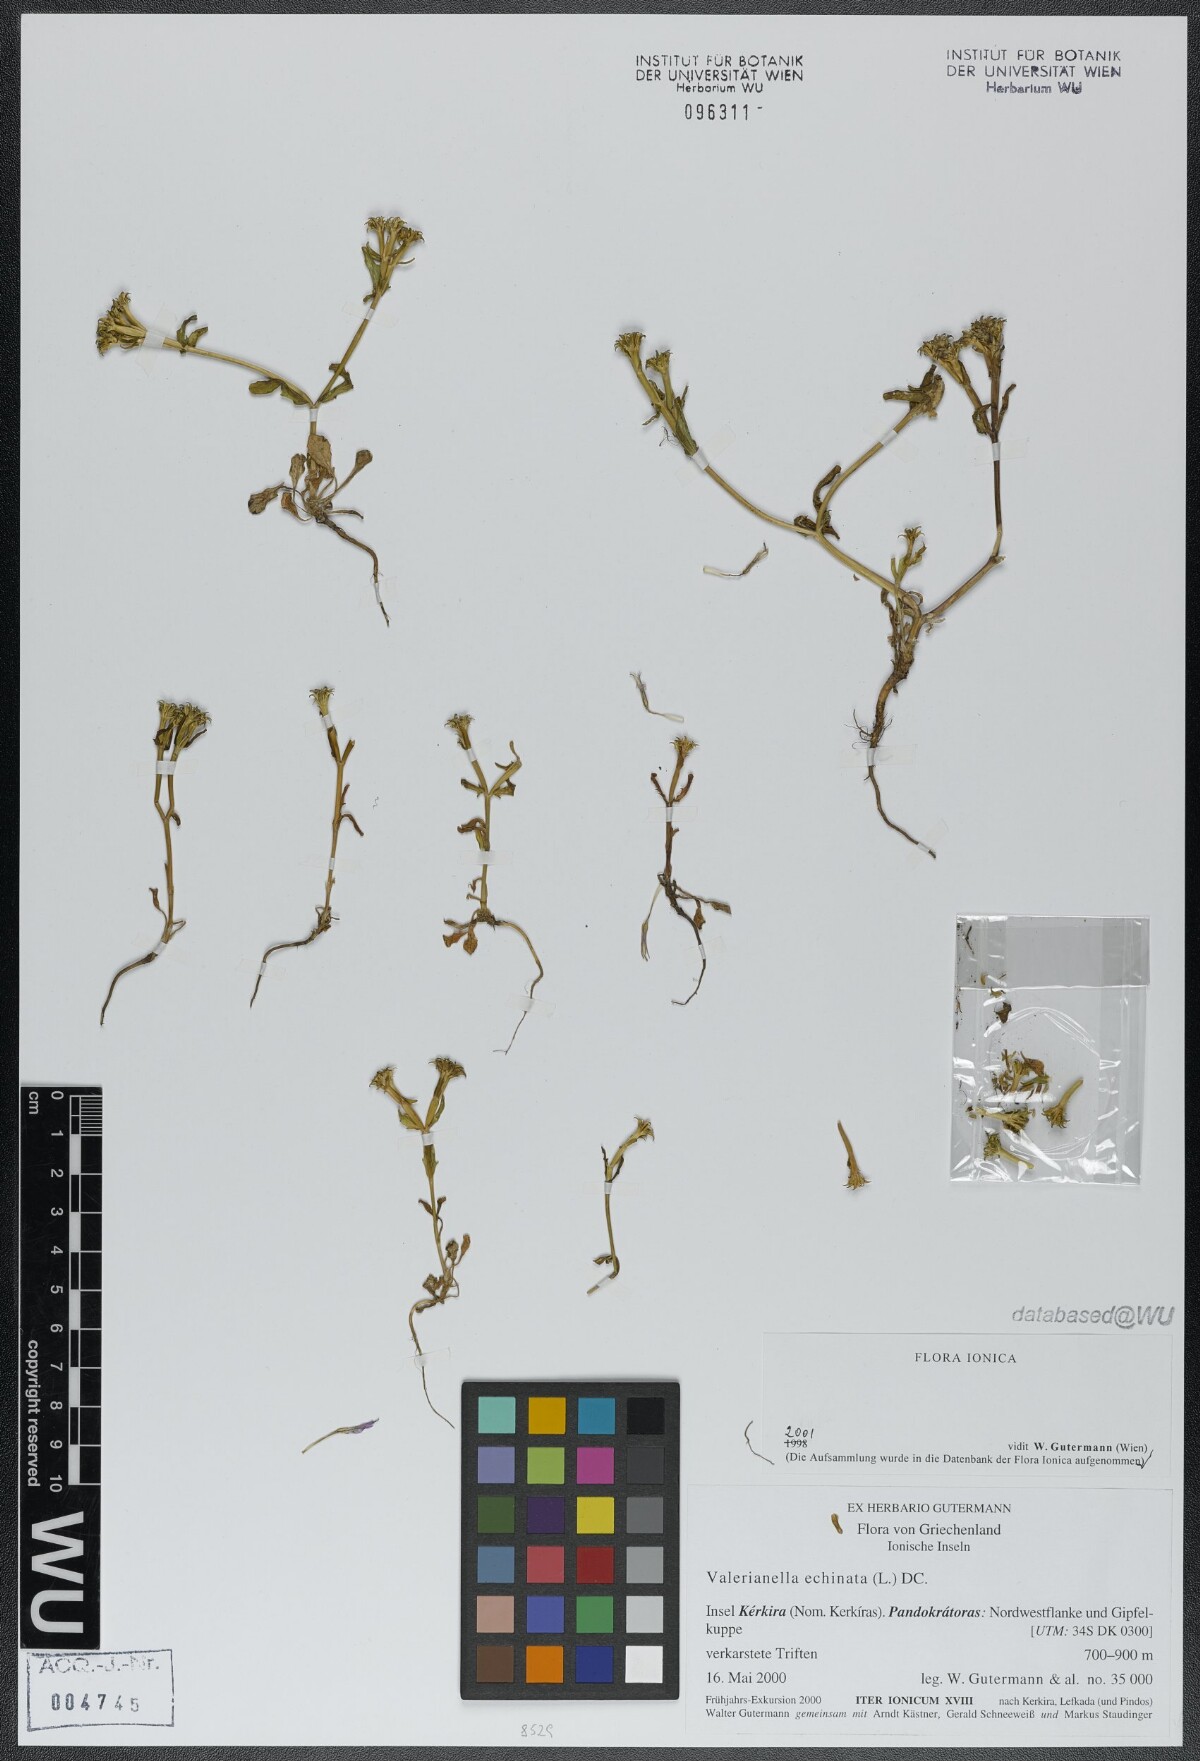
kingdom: Plantae
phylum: Tracheophyta
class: Magnoliopsida
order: Dipsacales
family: Caprifoliaceae
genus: Valerianella
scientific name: Valerianella echinata
